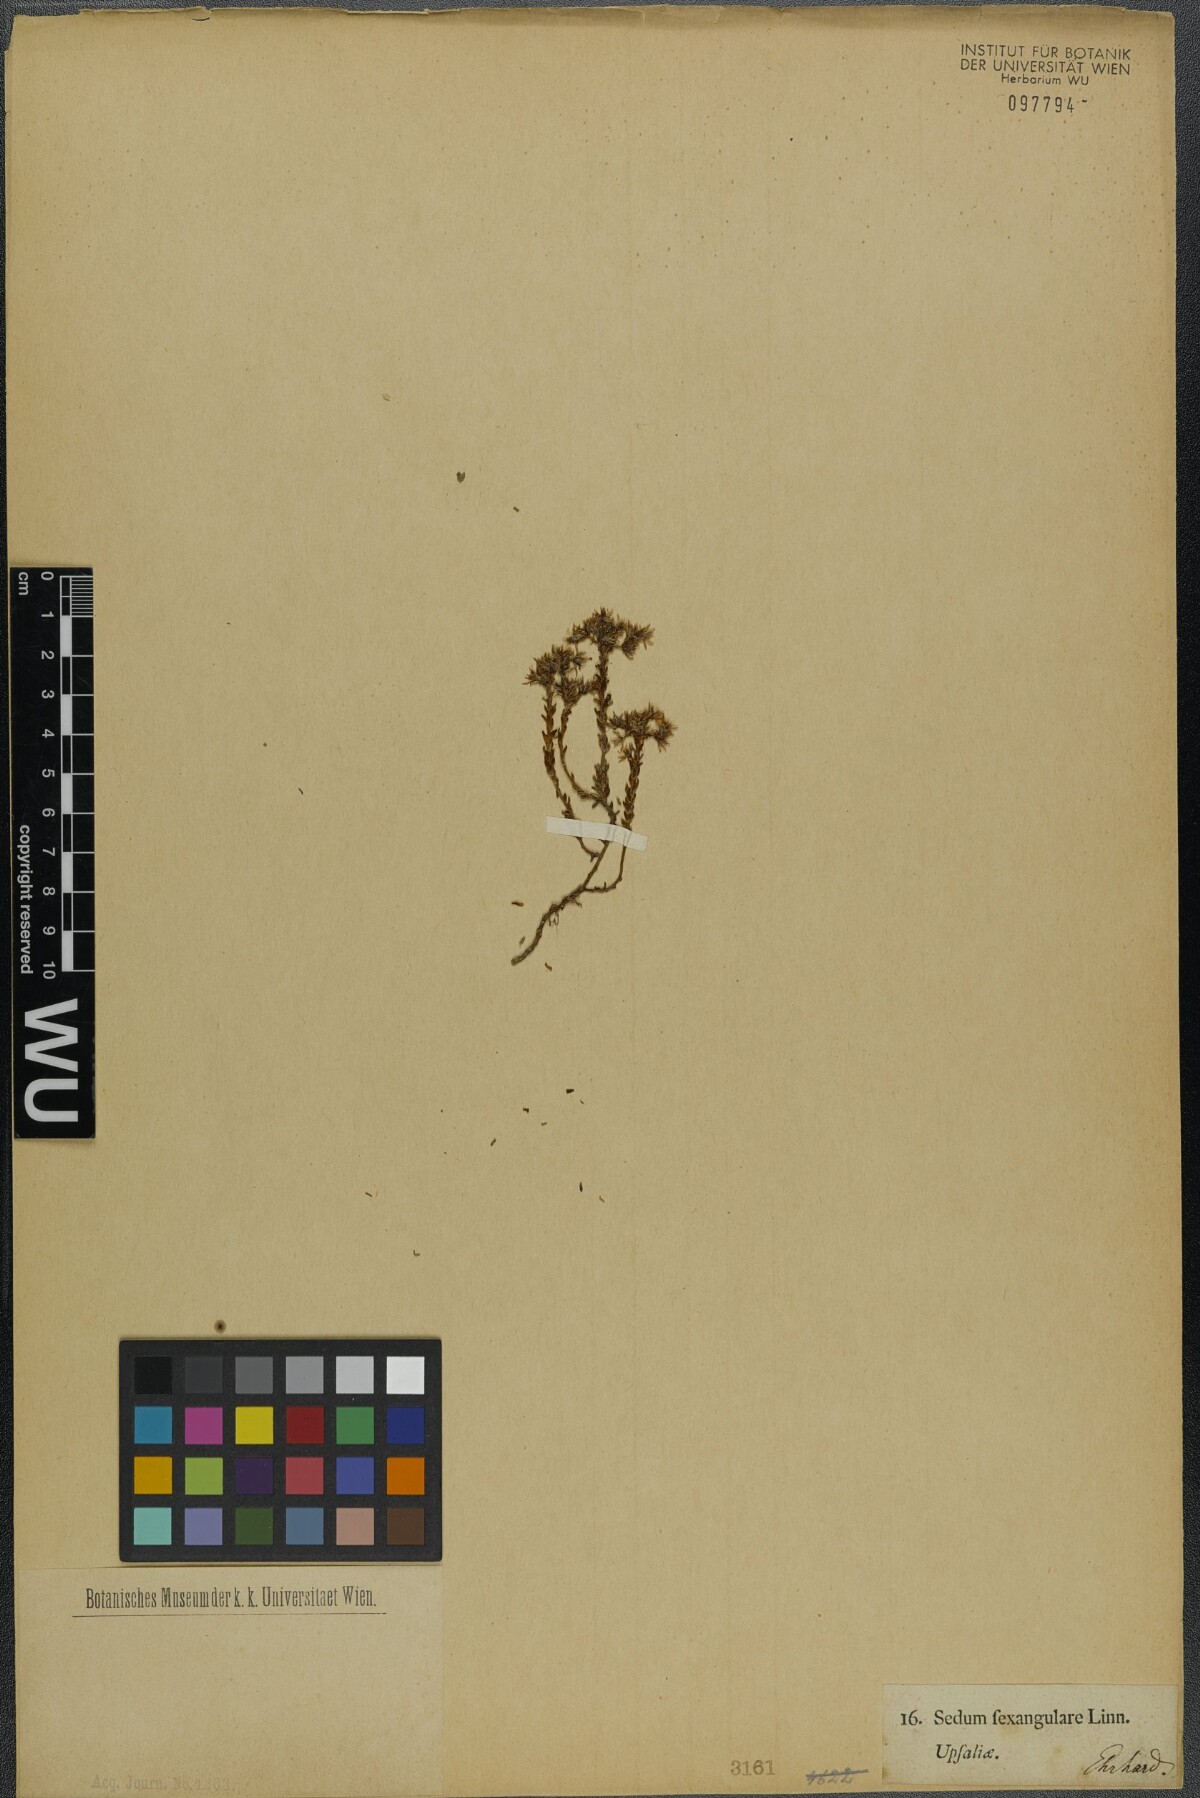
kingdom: Plantae
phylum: Tracheophyta
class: Magnoliopsida
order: Saxifragales
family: Crassulaceae
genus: Sedum
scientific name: Sedum sexangulare
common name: Tasteless stonecrop
